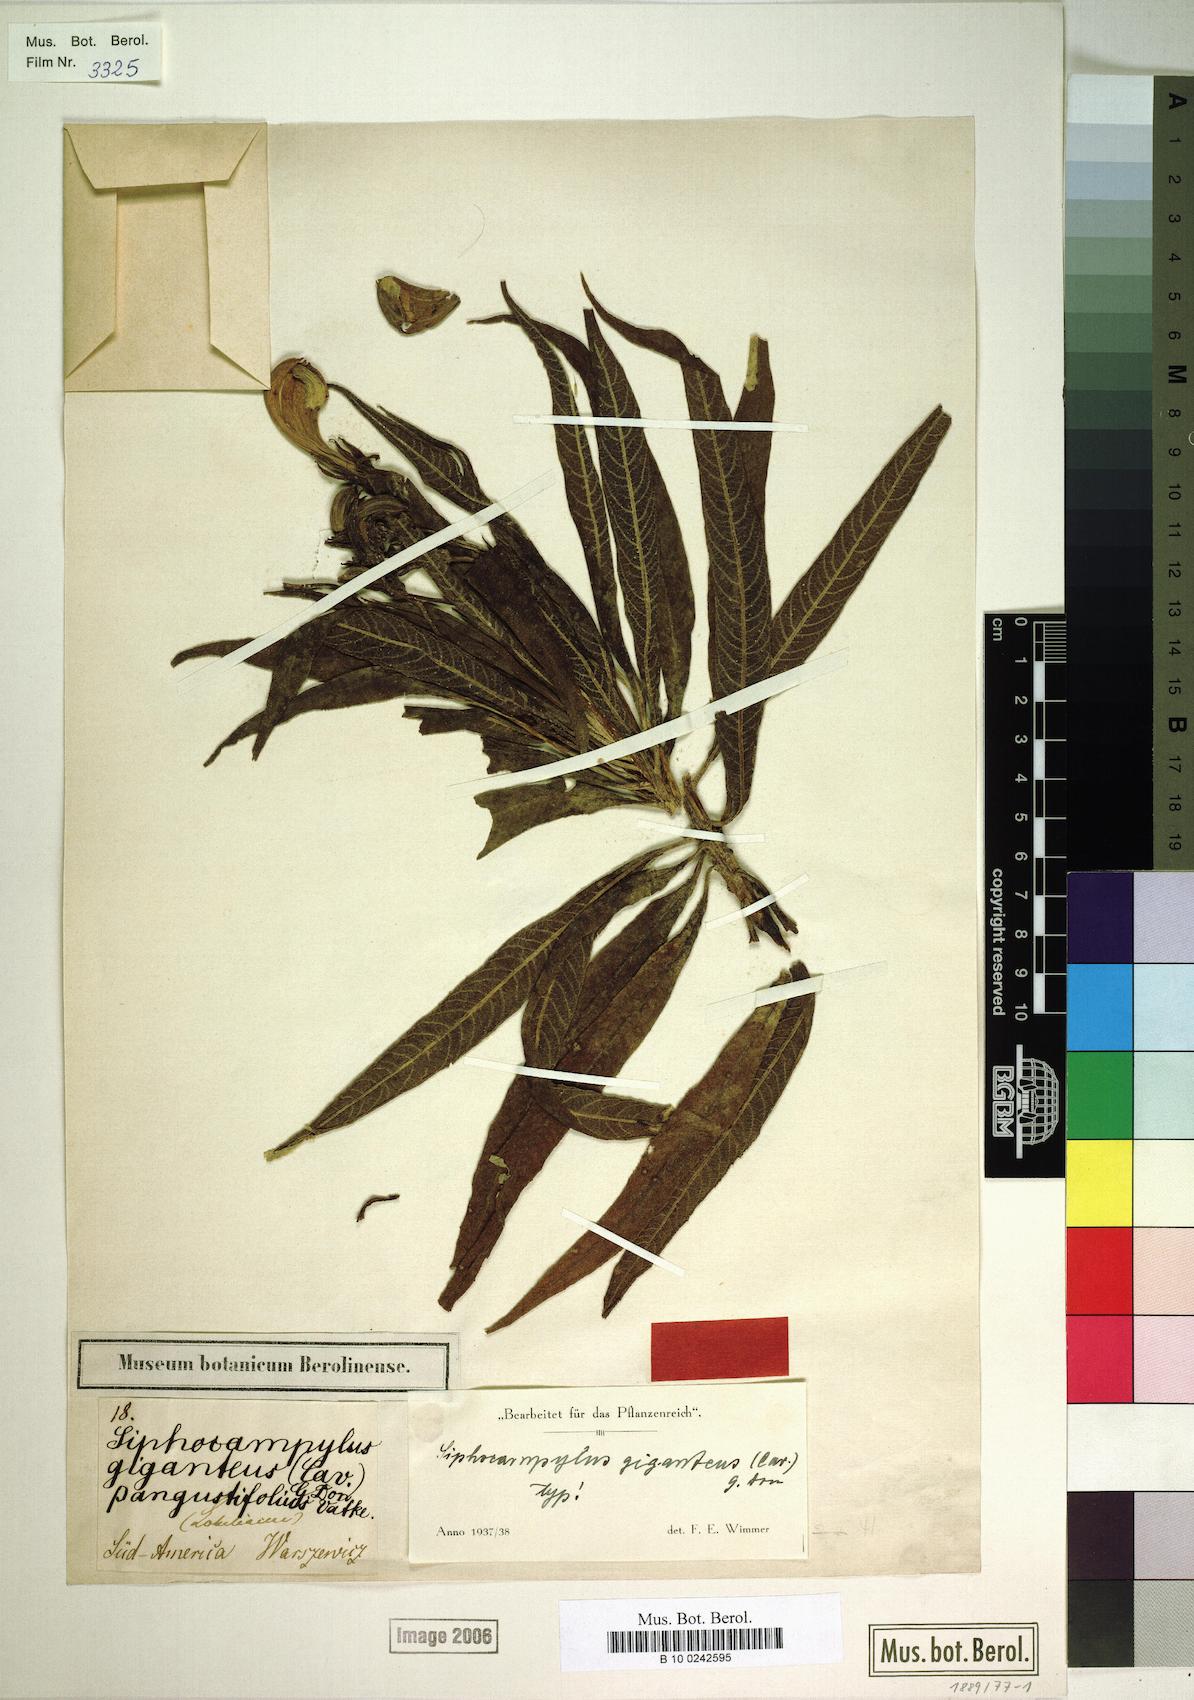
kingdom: Plantae
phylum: Tracheophyta
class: Magnoliopsida
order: Asterales
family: Campanulaceae
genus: Siphocampylus
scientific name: Siphocampylus giganteus
